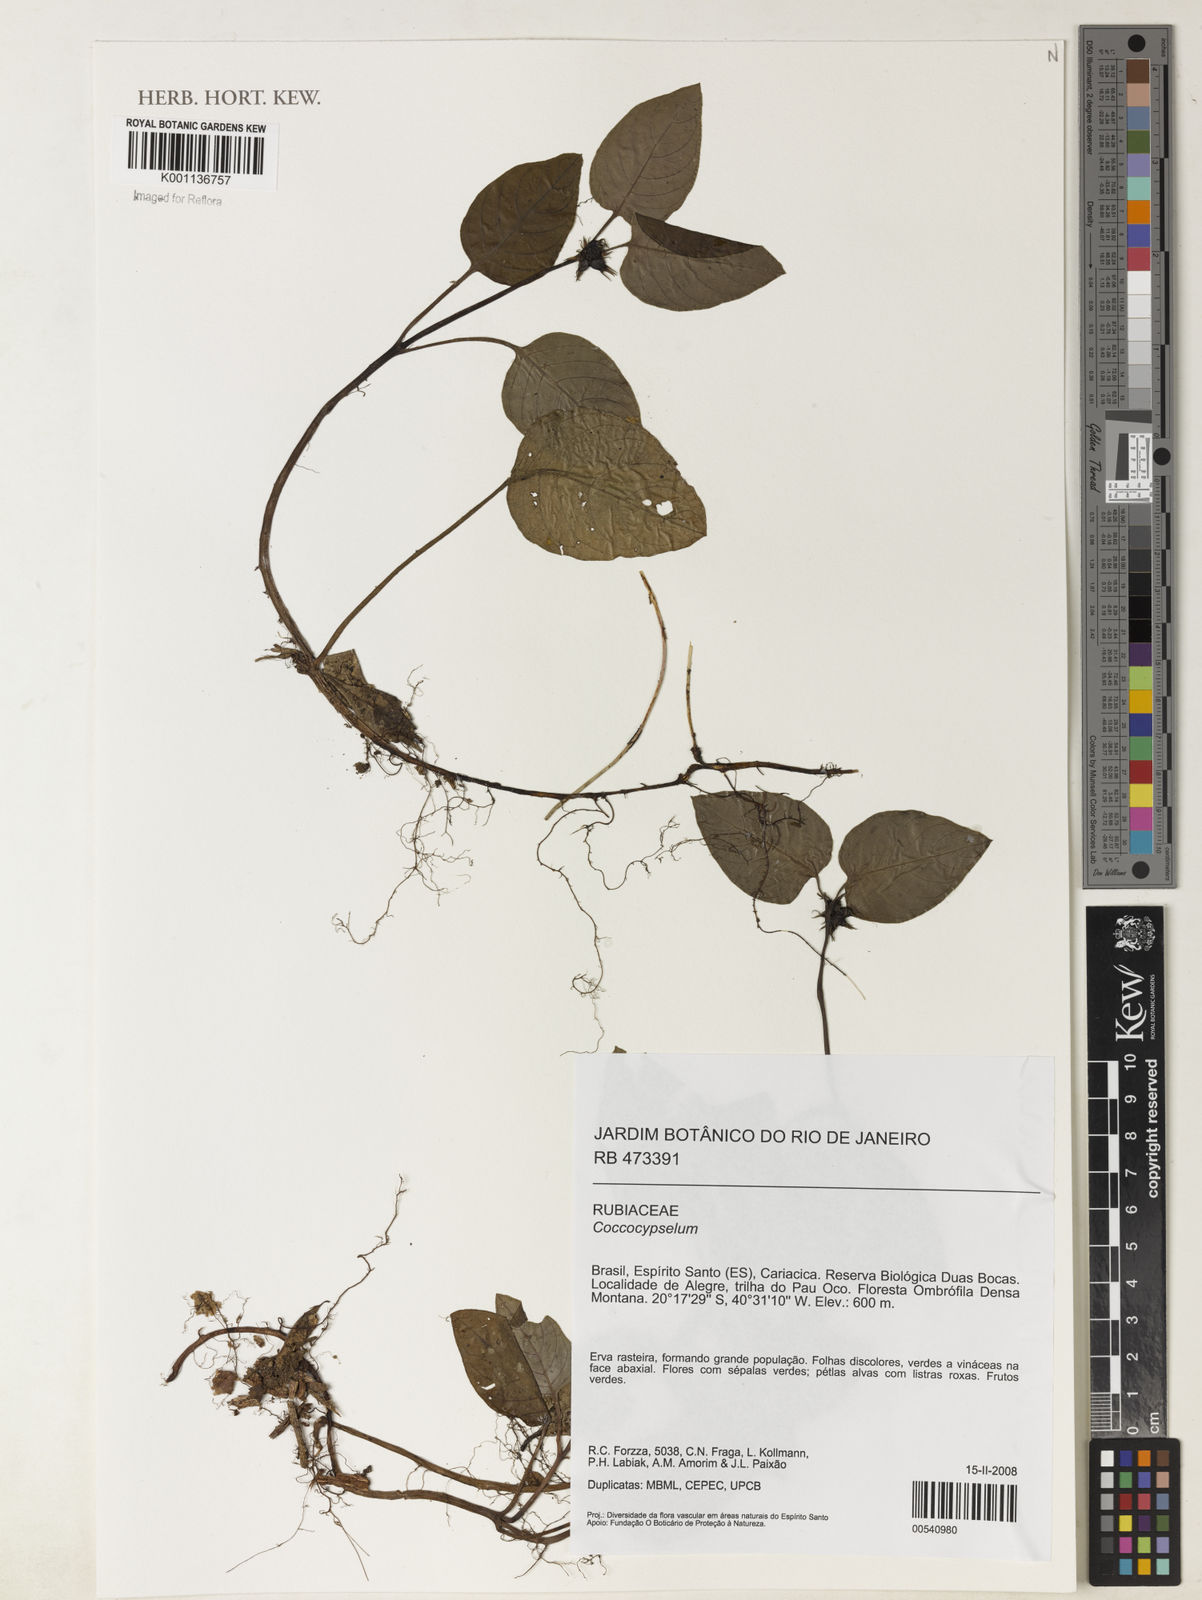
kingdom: Plantae
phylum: Tracheophyta
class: Magnoliopsida
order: Gentianales
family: Rubiaceae
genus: Coccocypselum
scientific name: Coccocypselum
